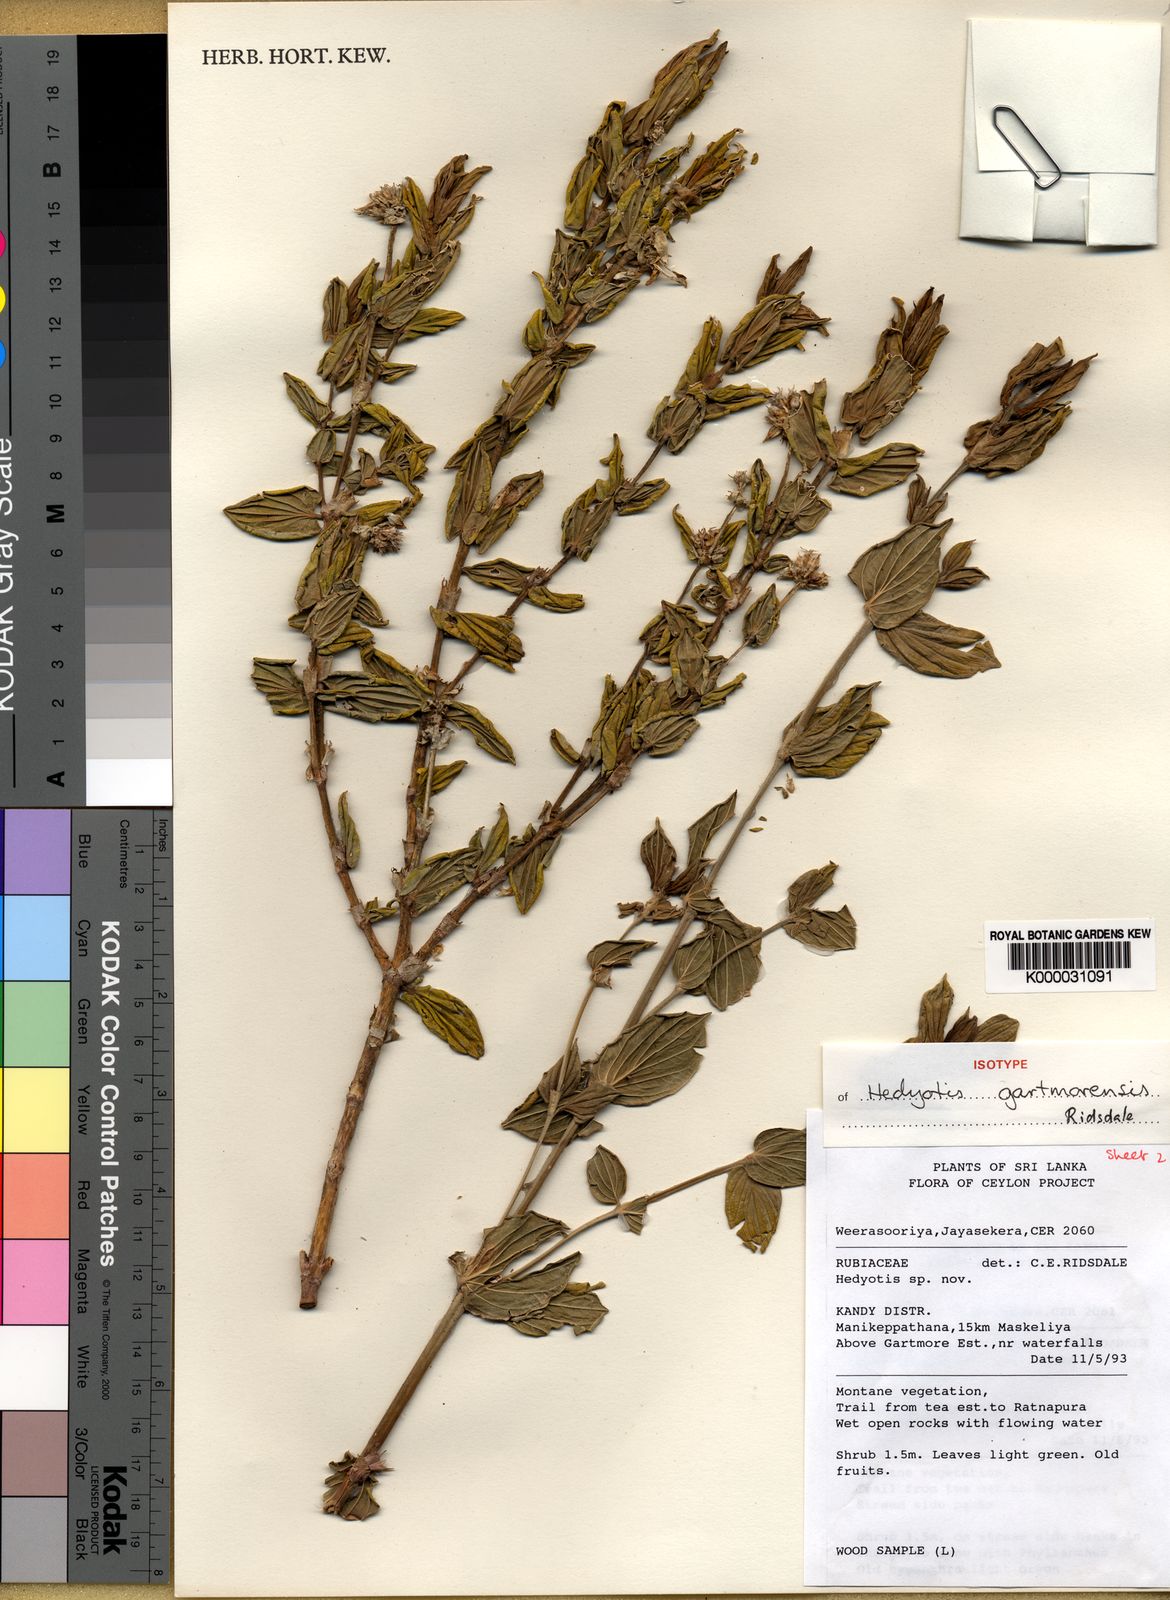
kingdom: Plantae
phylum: Tracheophyta
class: Magnoliopsida
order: Gentianales
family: Rubiaceae
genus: Hedyotis
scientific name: Hedyotis gartmorensis
